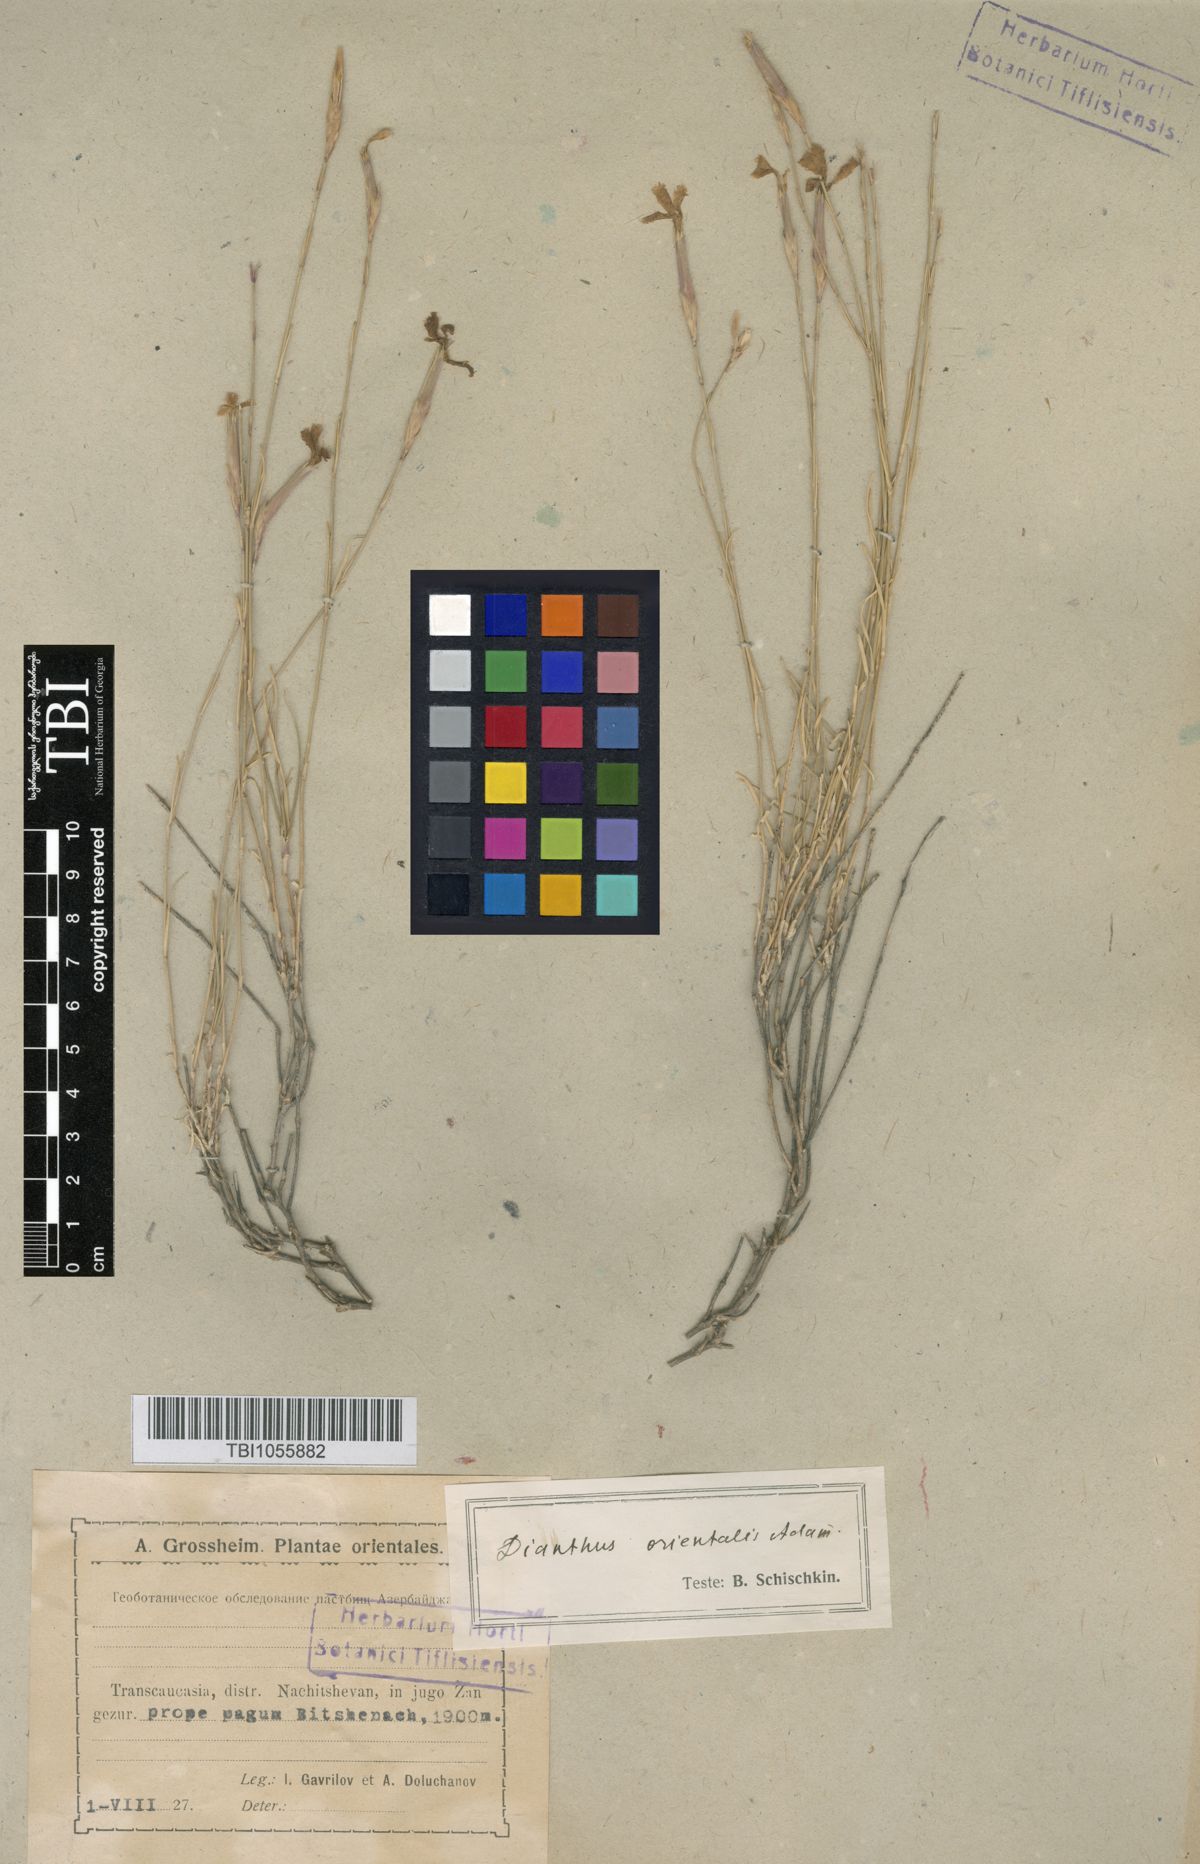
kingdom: Plantae
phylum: Tracheophyta
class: Magnoliopsida
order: Caryophyllales
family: Caryophyllaceae
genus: Dianthus
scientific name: Dianthus orientalis
